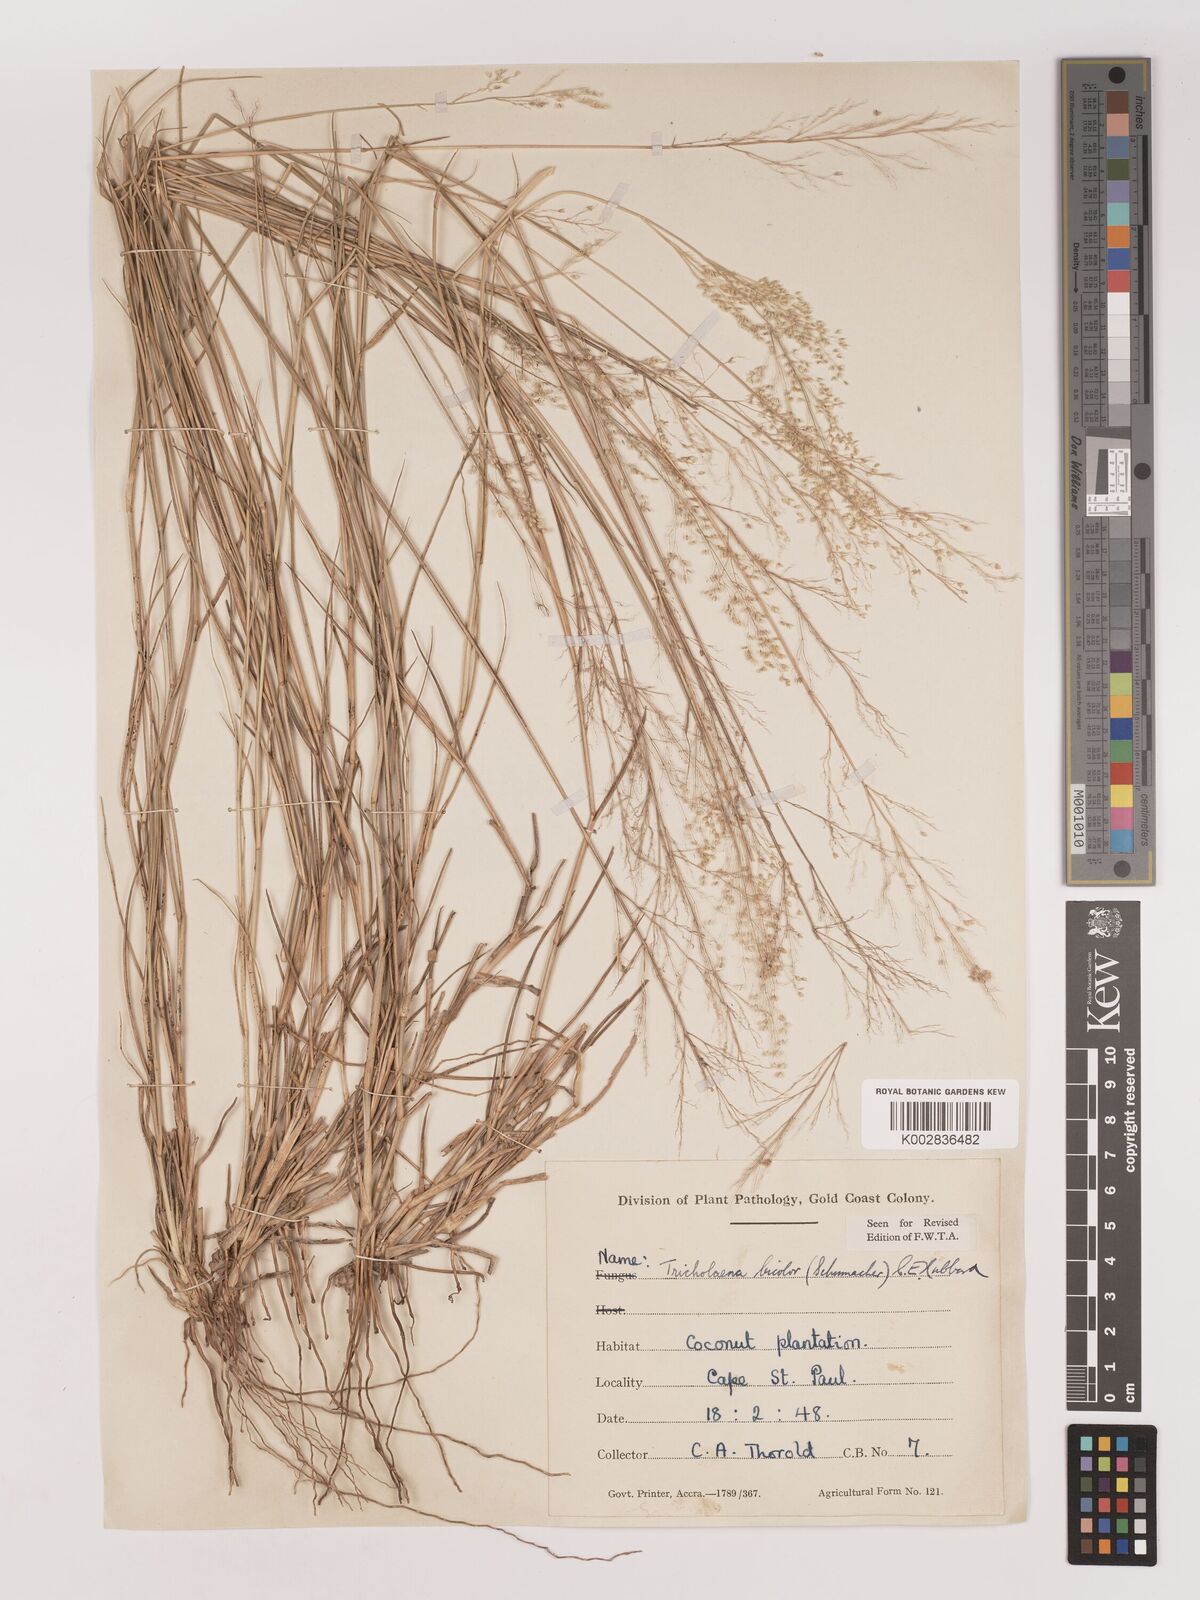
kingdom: Plantae
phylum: Tracheophyta
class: Liliopsida
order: Poales
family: Poaceae
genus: Tricholaena
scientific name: Tricholaena monachne
